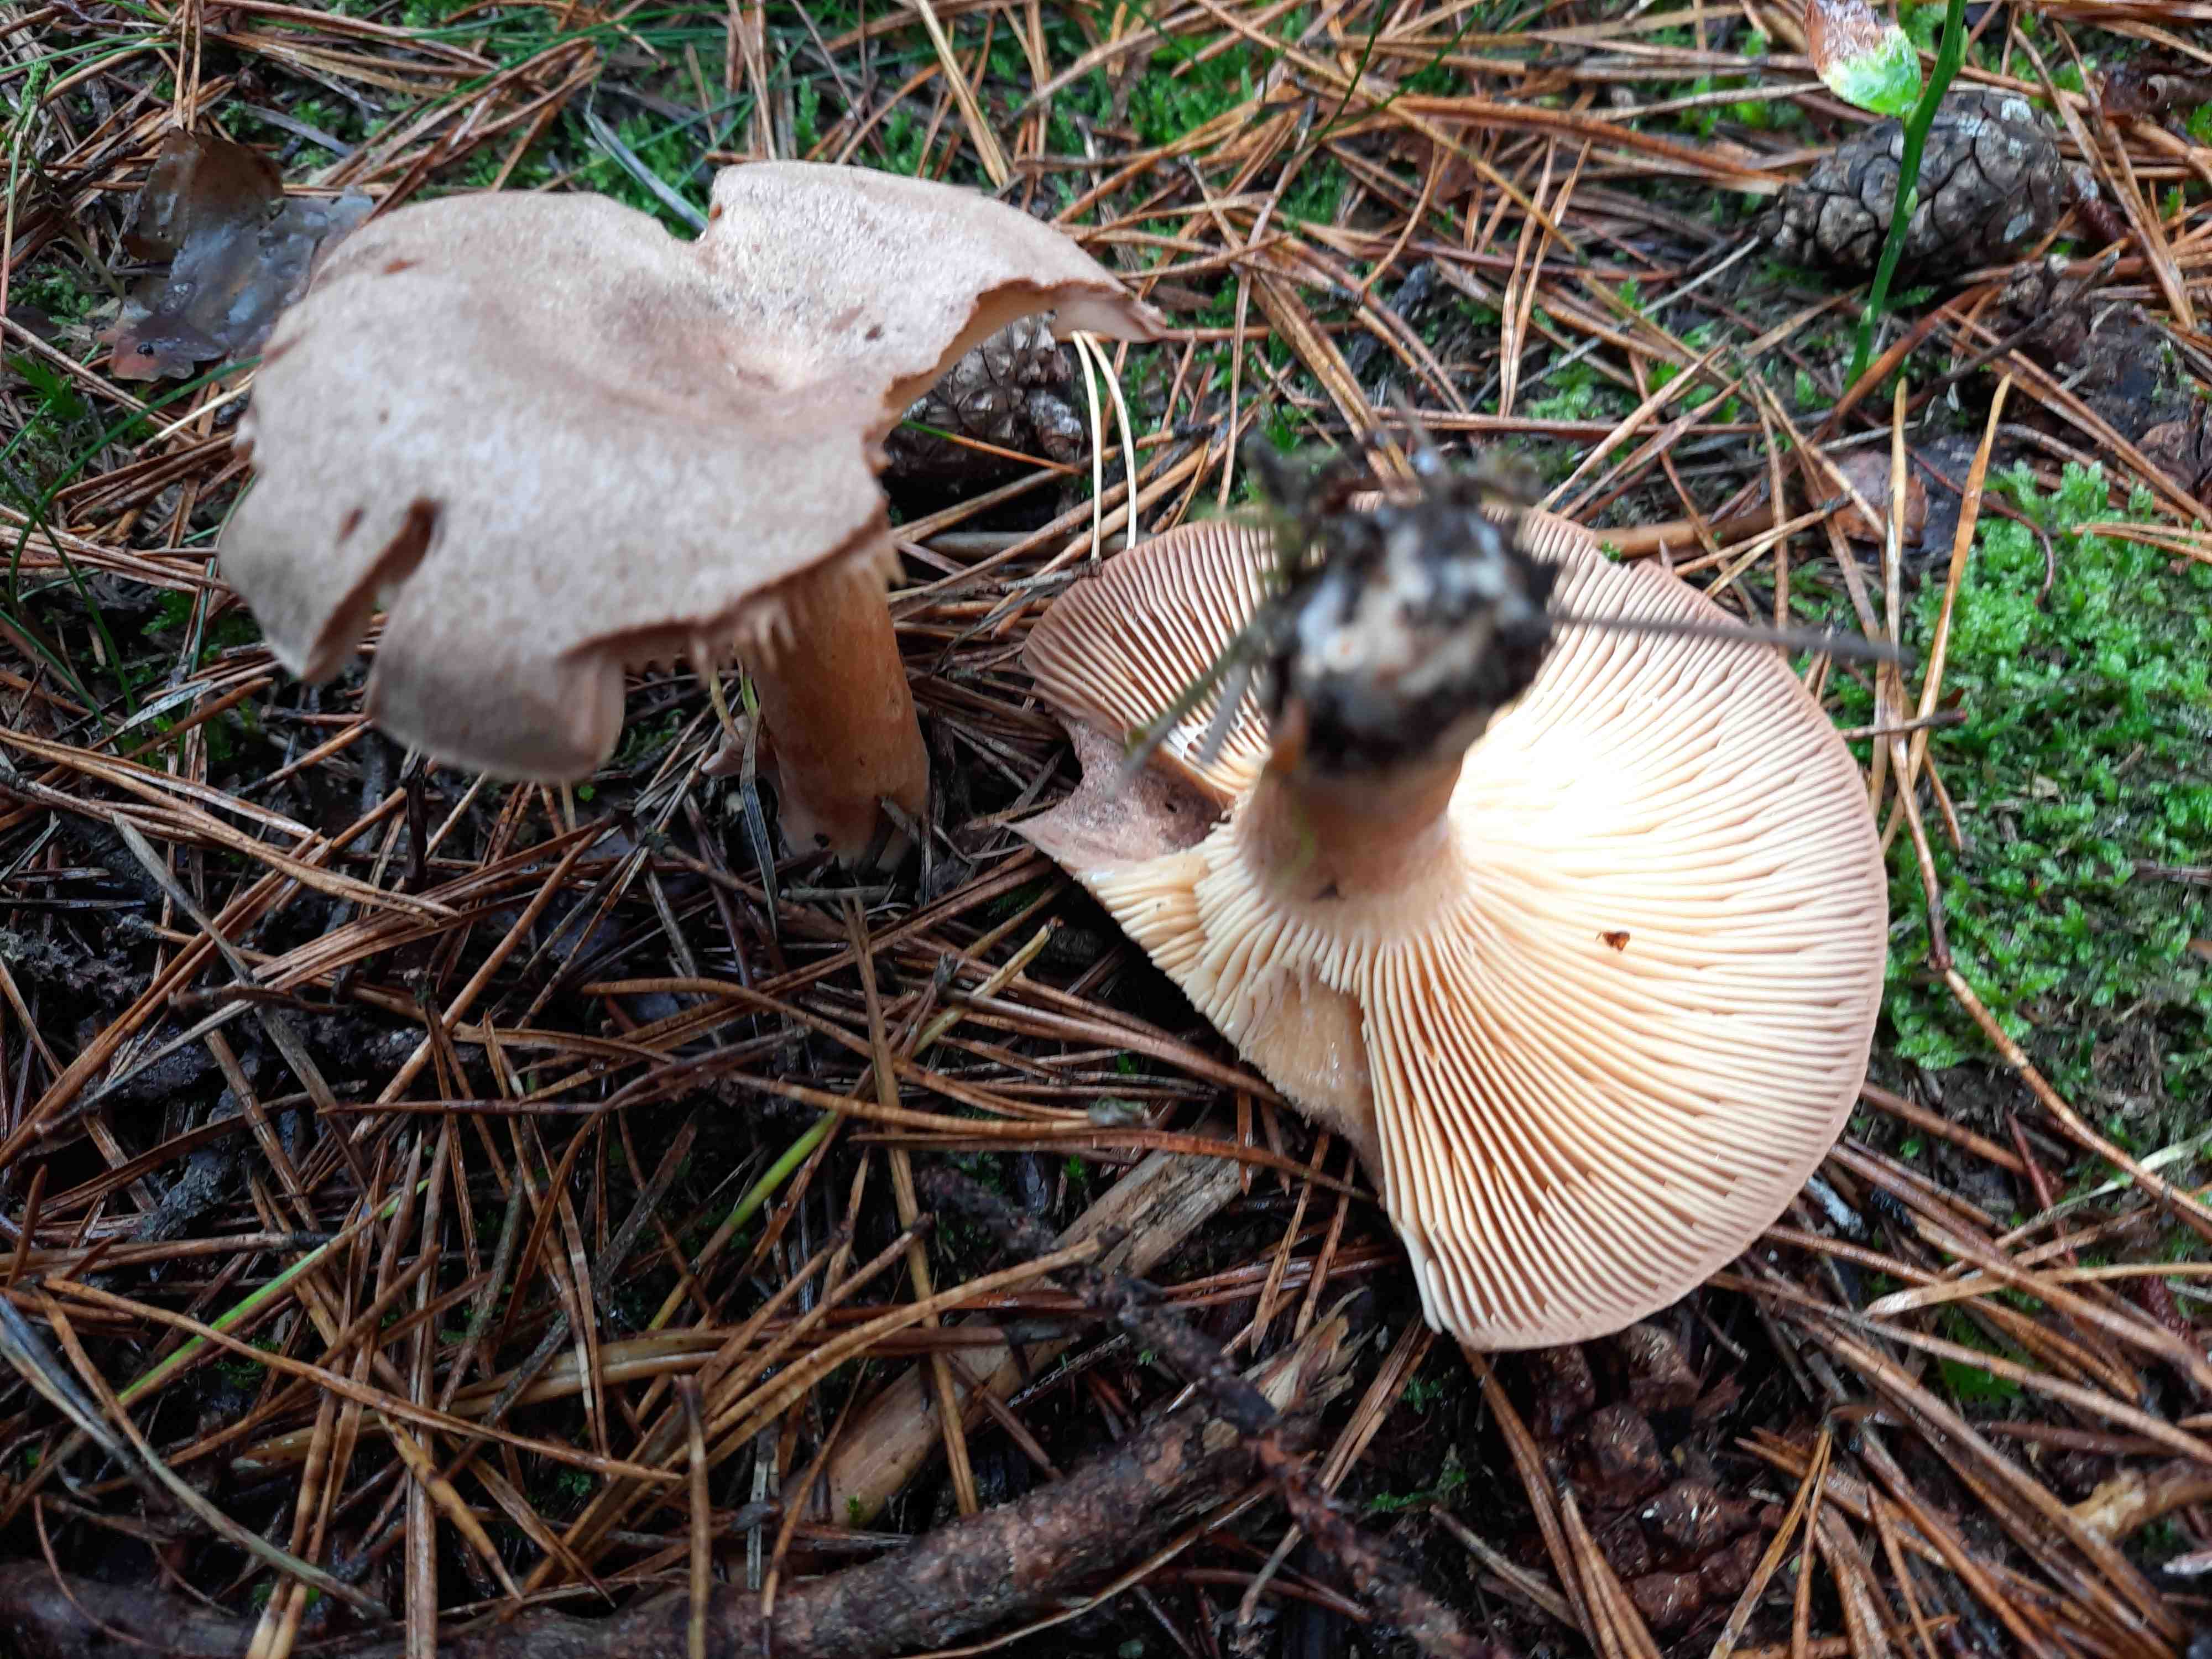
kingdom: Fungi
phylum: Basidiomycota
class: Agaricomycetes
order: Russulales
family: Russulaceae
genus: Lactarius
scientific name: Lactarius helvus
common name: mose-mælkehat
